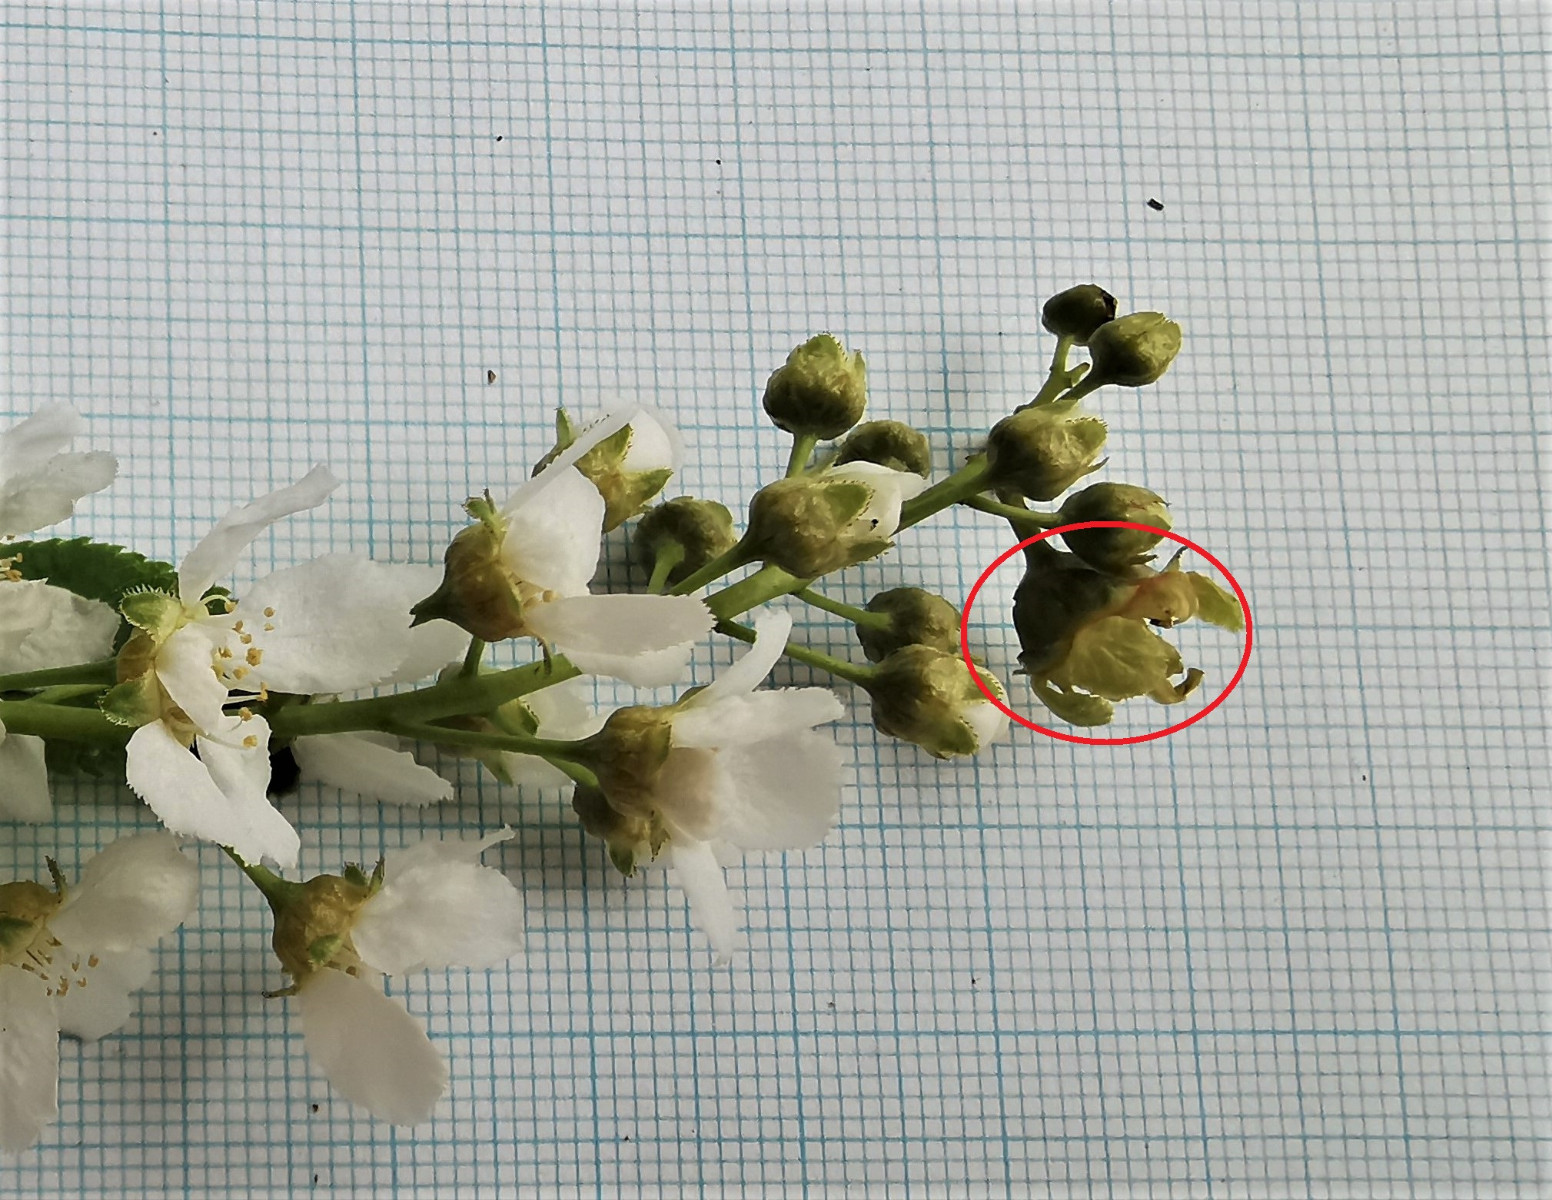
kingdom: Fungi
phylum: Ascomycota
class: Taphrinomycetes
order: Taphrinales
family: Taphrinaceae
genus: Taphrina
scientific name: Taphrina padi
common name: Bird cherry pocket
